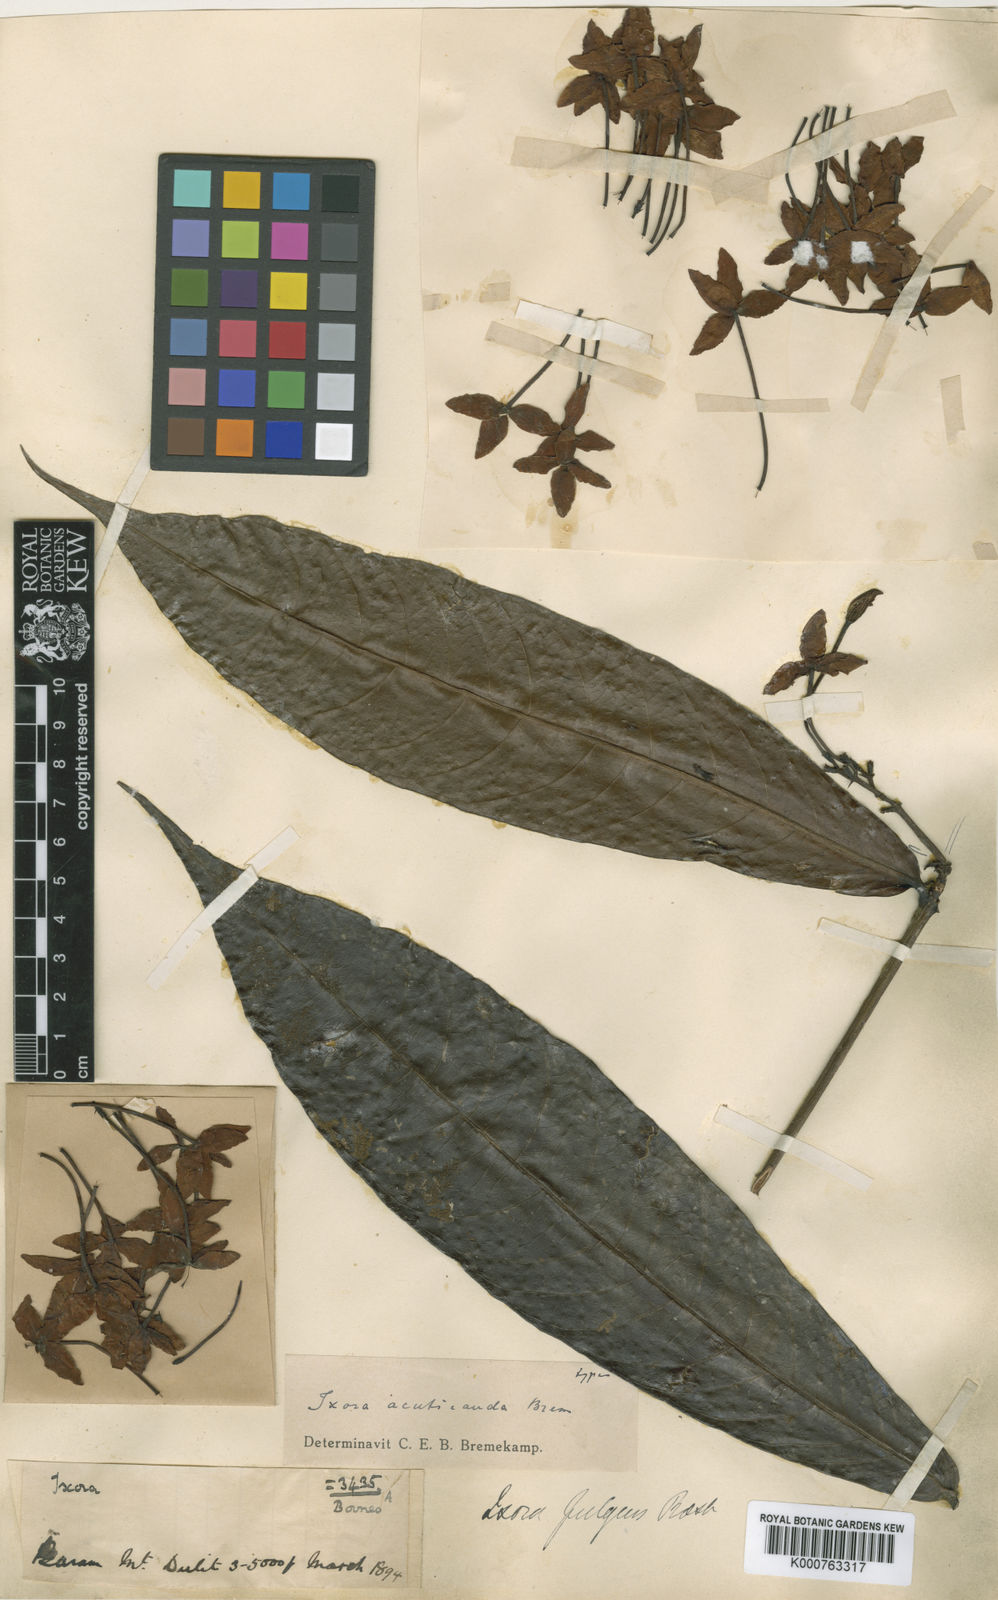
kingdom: Plantae
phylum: Tracheophyta
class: Magnoliopsida
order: Gentianales
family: Rubiaceae
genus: Ixora
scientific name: Ixora acuticauda
